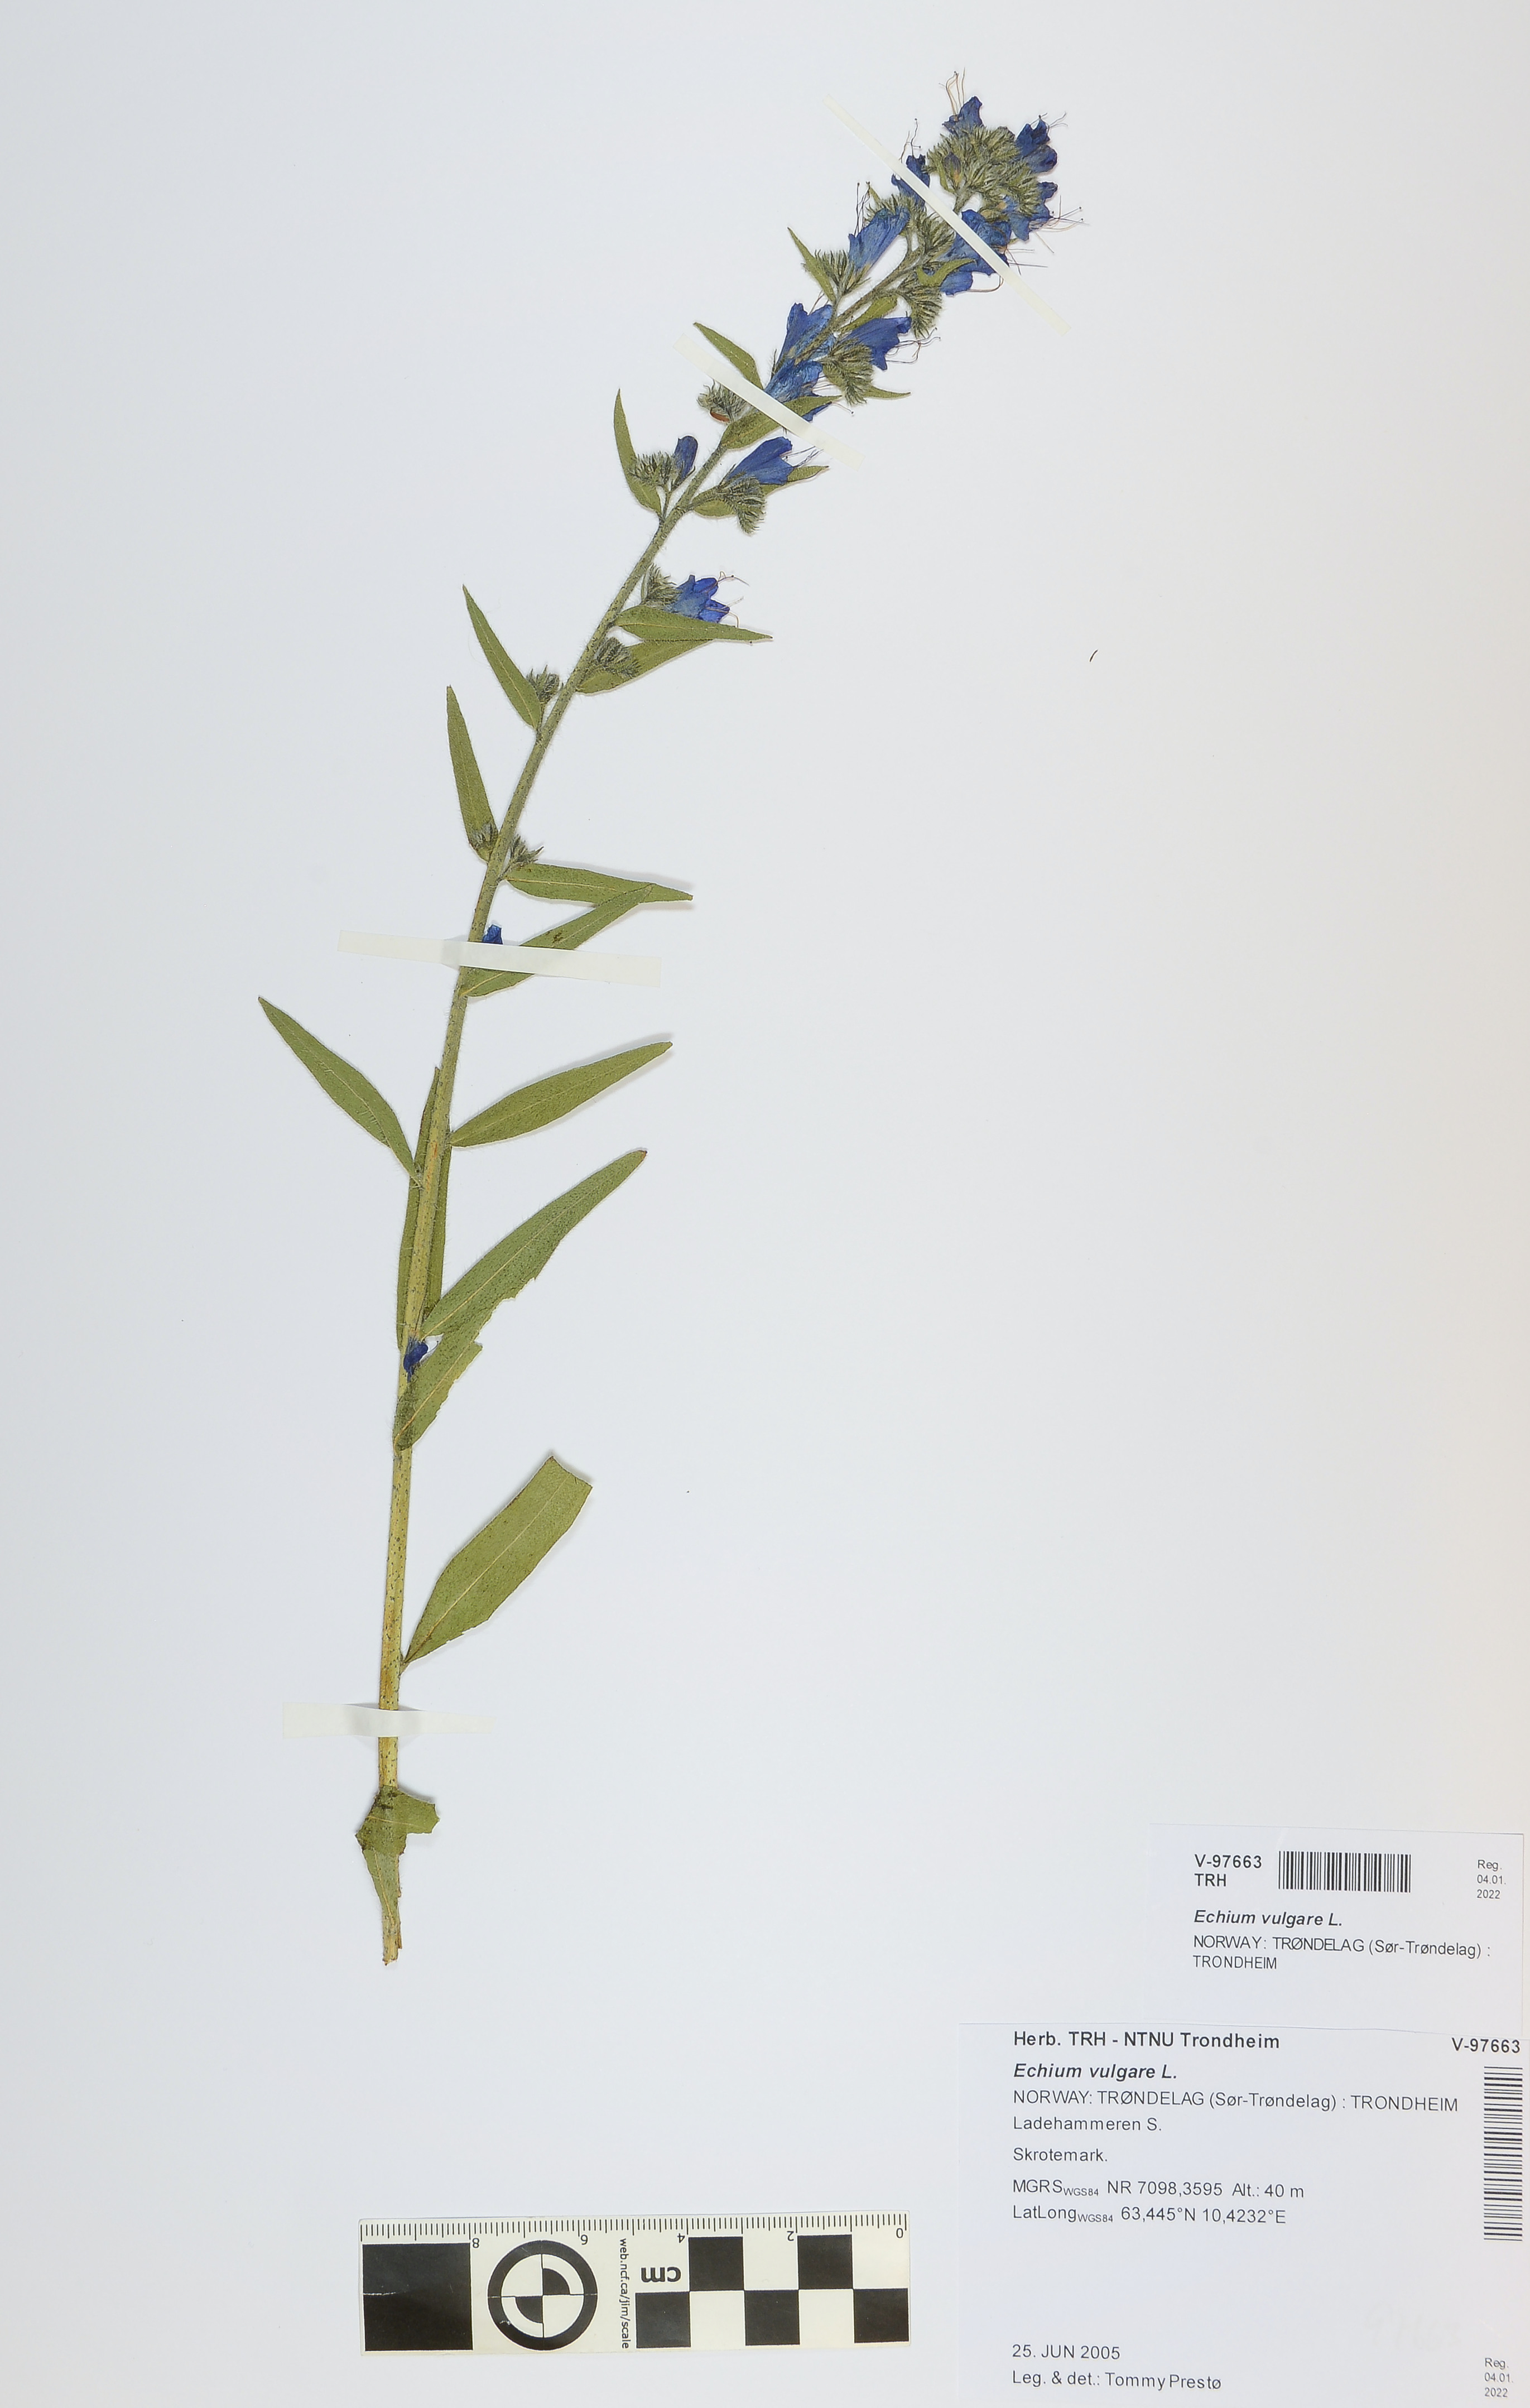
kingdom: Plantae
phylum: Tracheophyta
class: Magnoliopsida
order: Boraginales
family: Boraginaceae
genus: Echium
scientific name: Echium vulgare
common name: Common viper's bugloss
